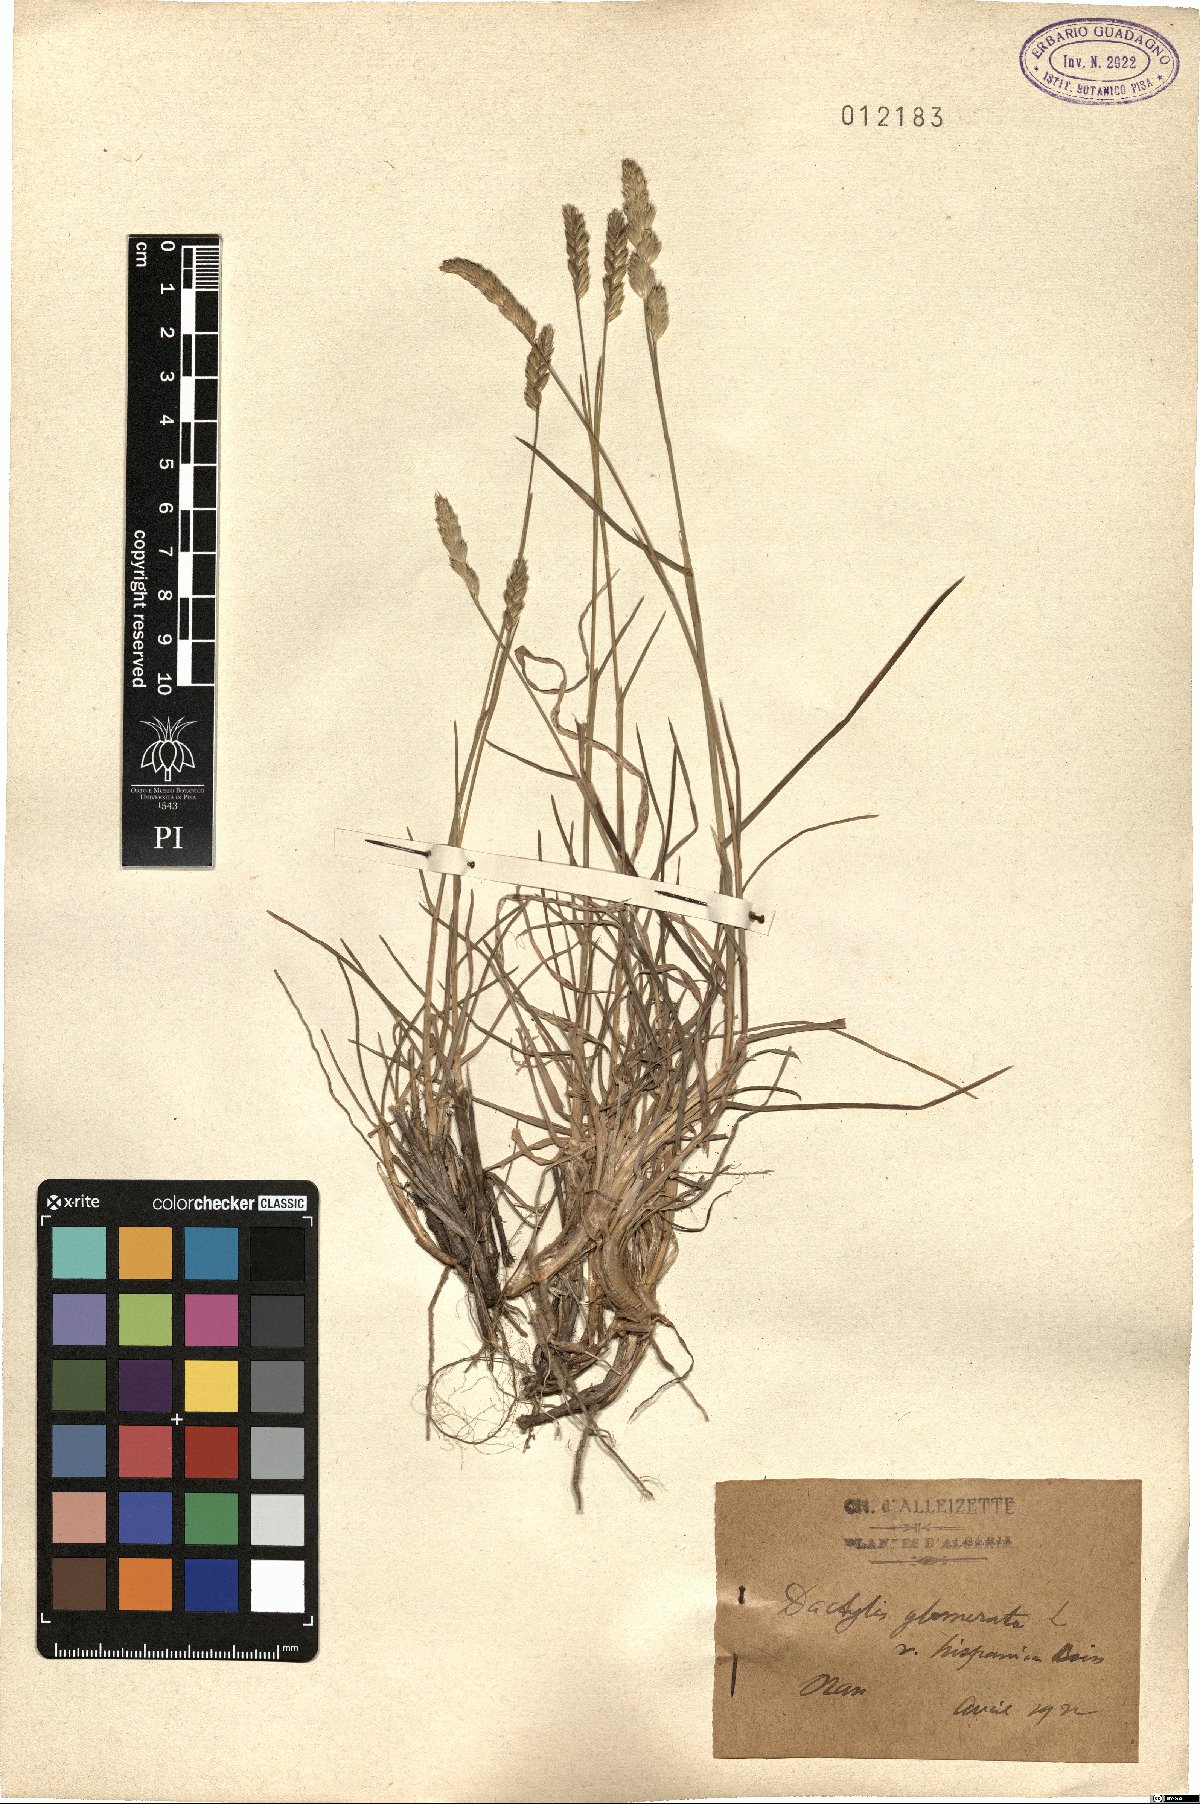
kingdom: Plantae
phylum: Tracheophyta
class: Liliopsida
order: Poales
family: Poaceae
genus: Dactylis
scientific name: Dactylis glomerata
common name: Orchardgrass
